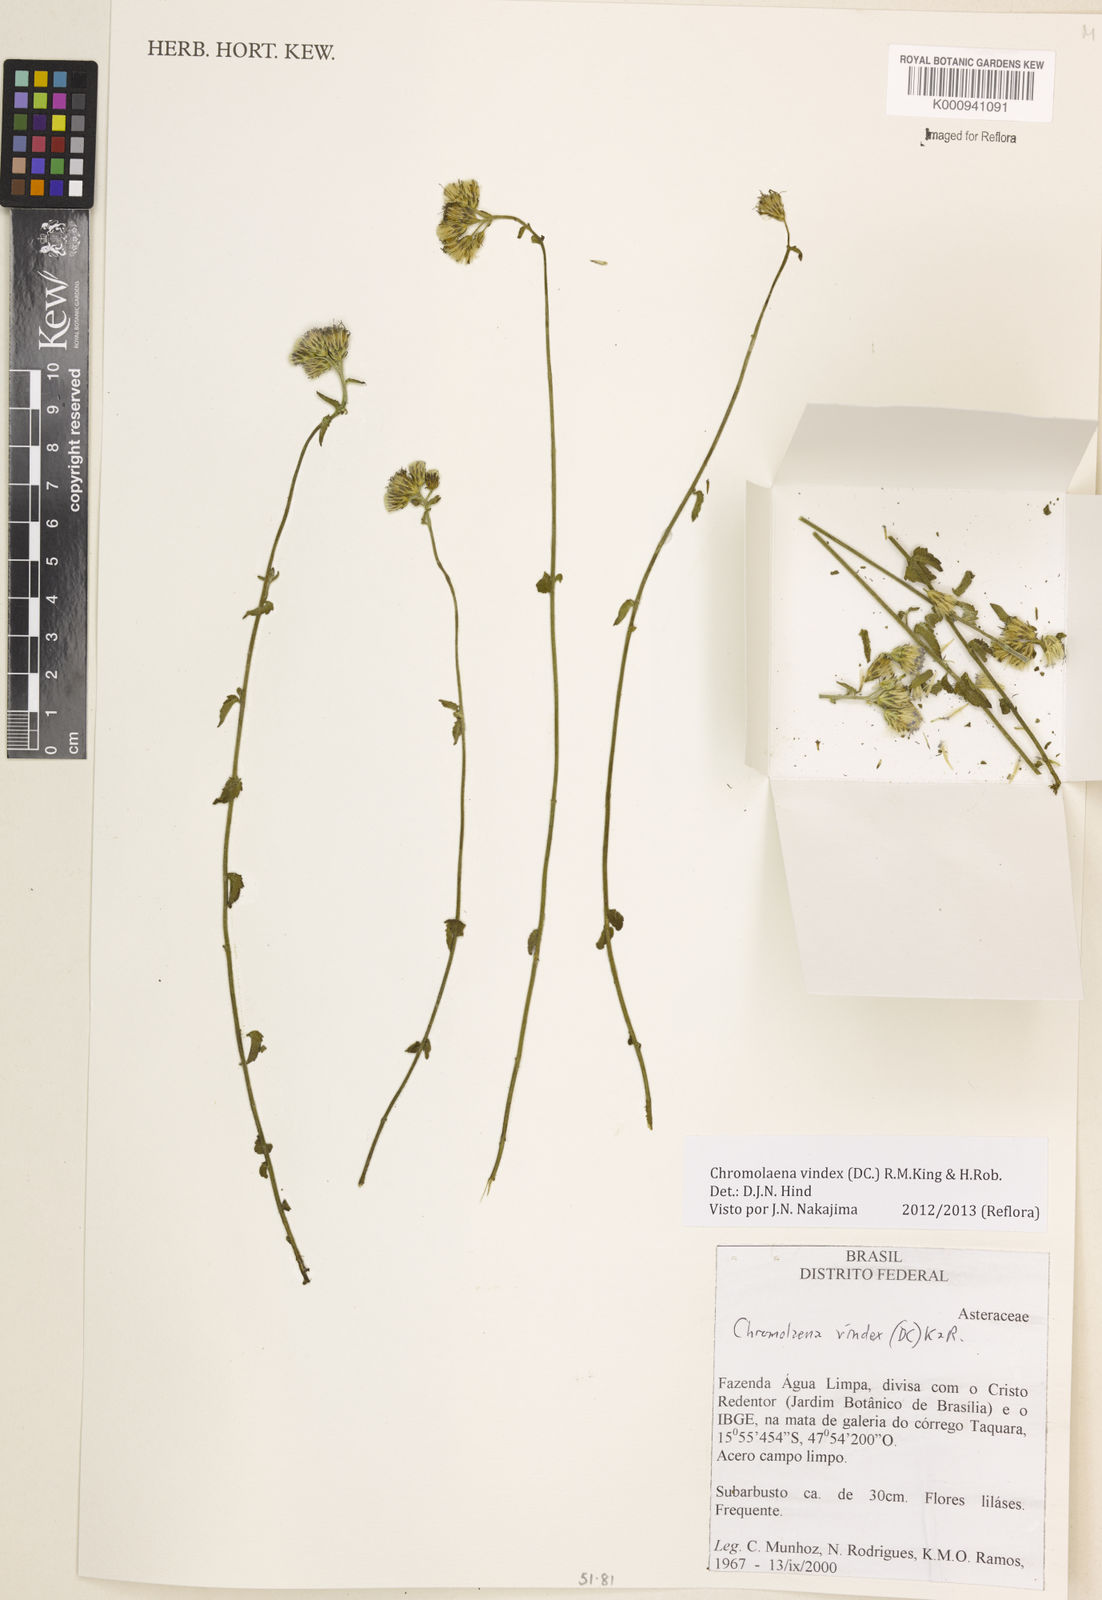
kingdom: Plantae
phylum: Tracheophyta
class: Magnoliopsida
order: Asterales
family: Asteraceae
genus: Chromolaena
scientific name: Chromolaena vindex
